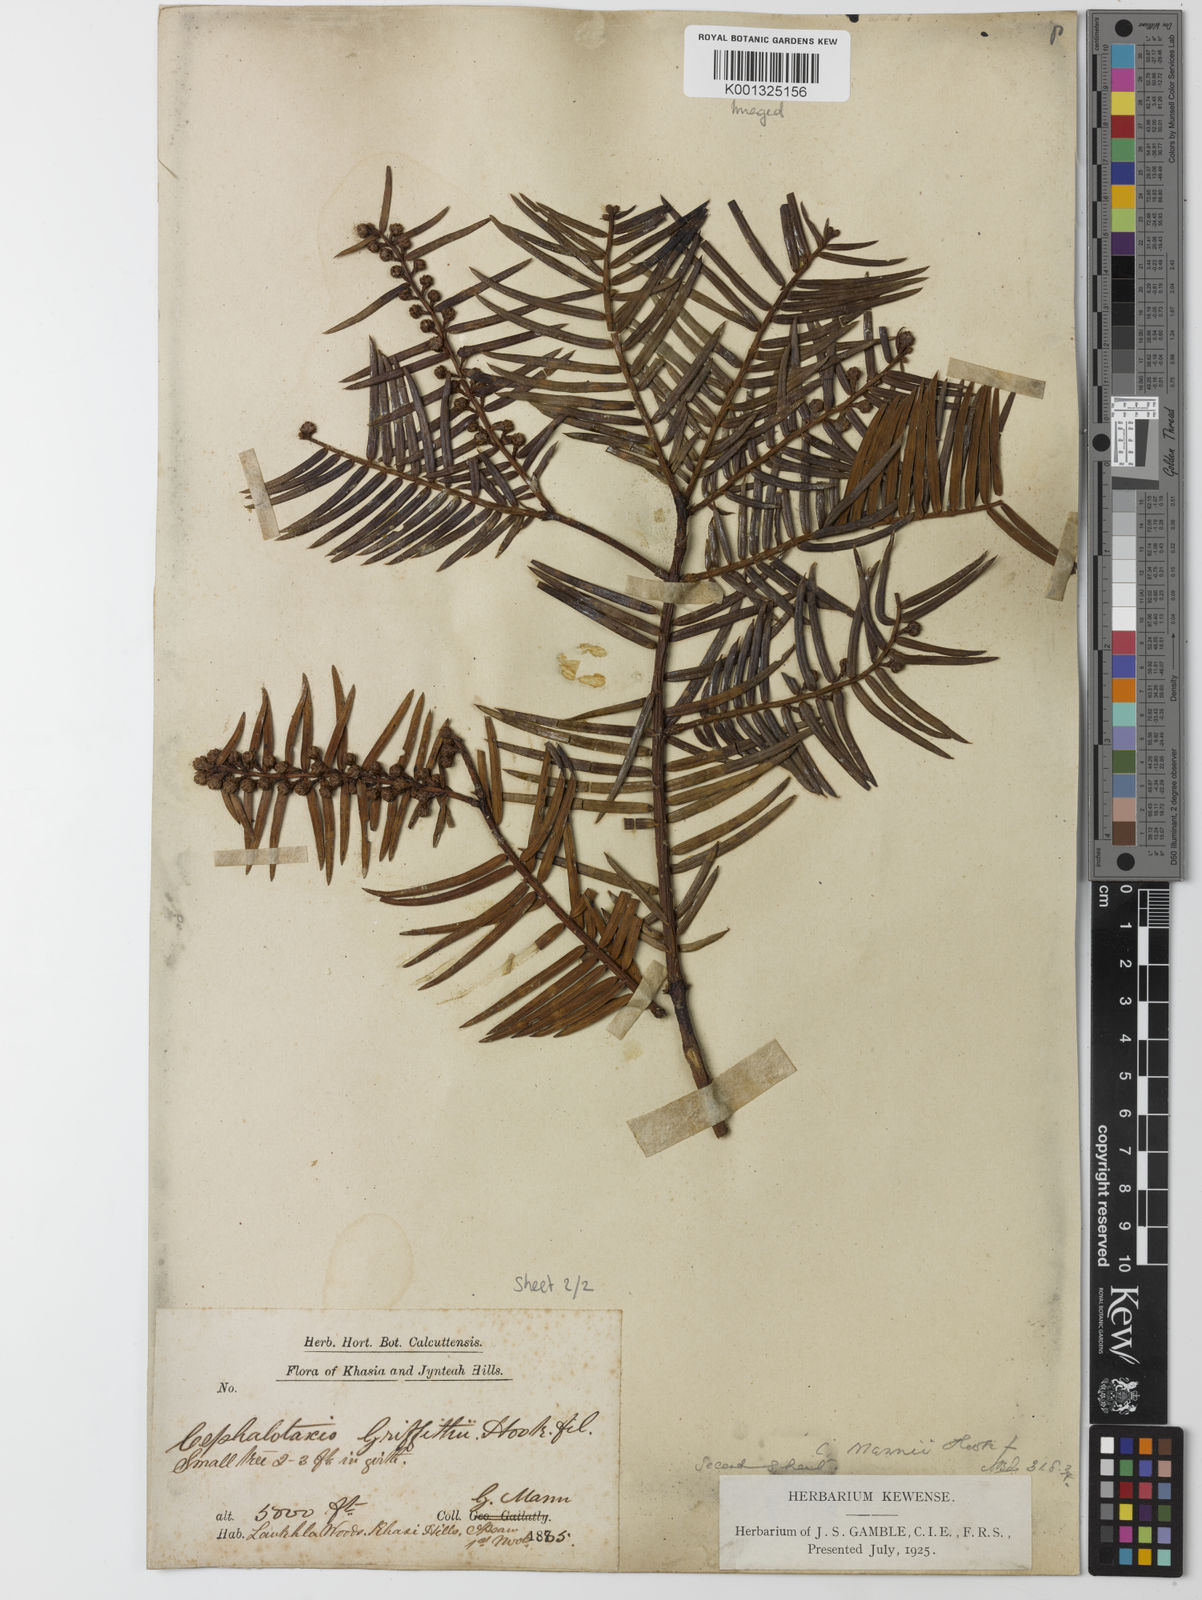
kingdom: Plantae
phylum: Tracheophyta
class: Pinopsida
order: Pinales
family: Cephalotaxaceae
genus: Cephalotaxus
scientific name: Cephalotaxus mannii
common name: Mann's yew plum
